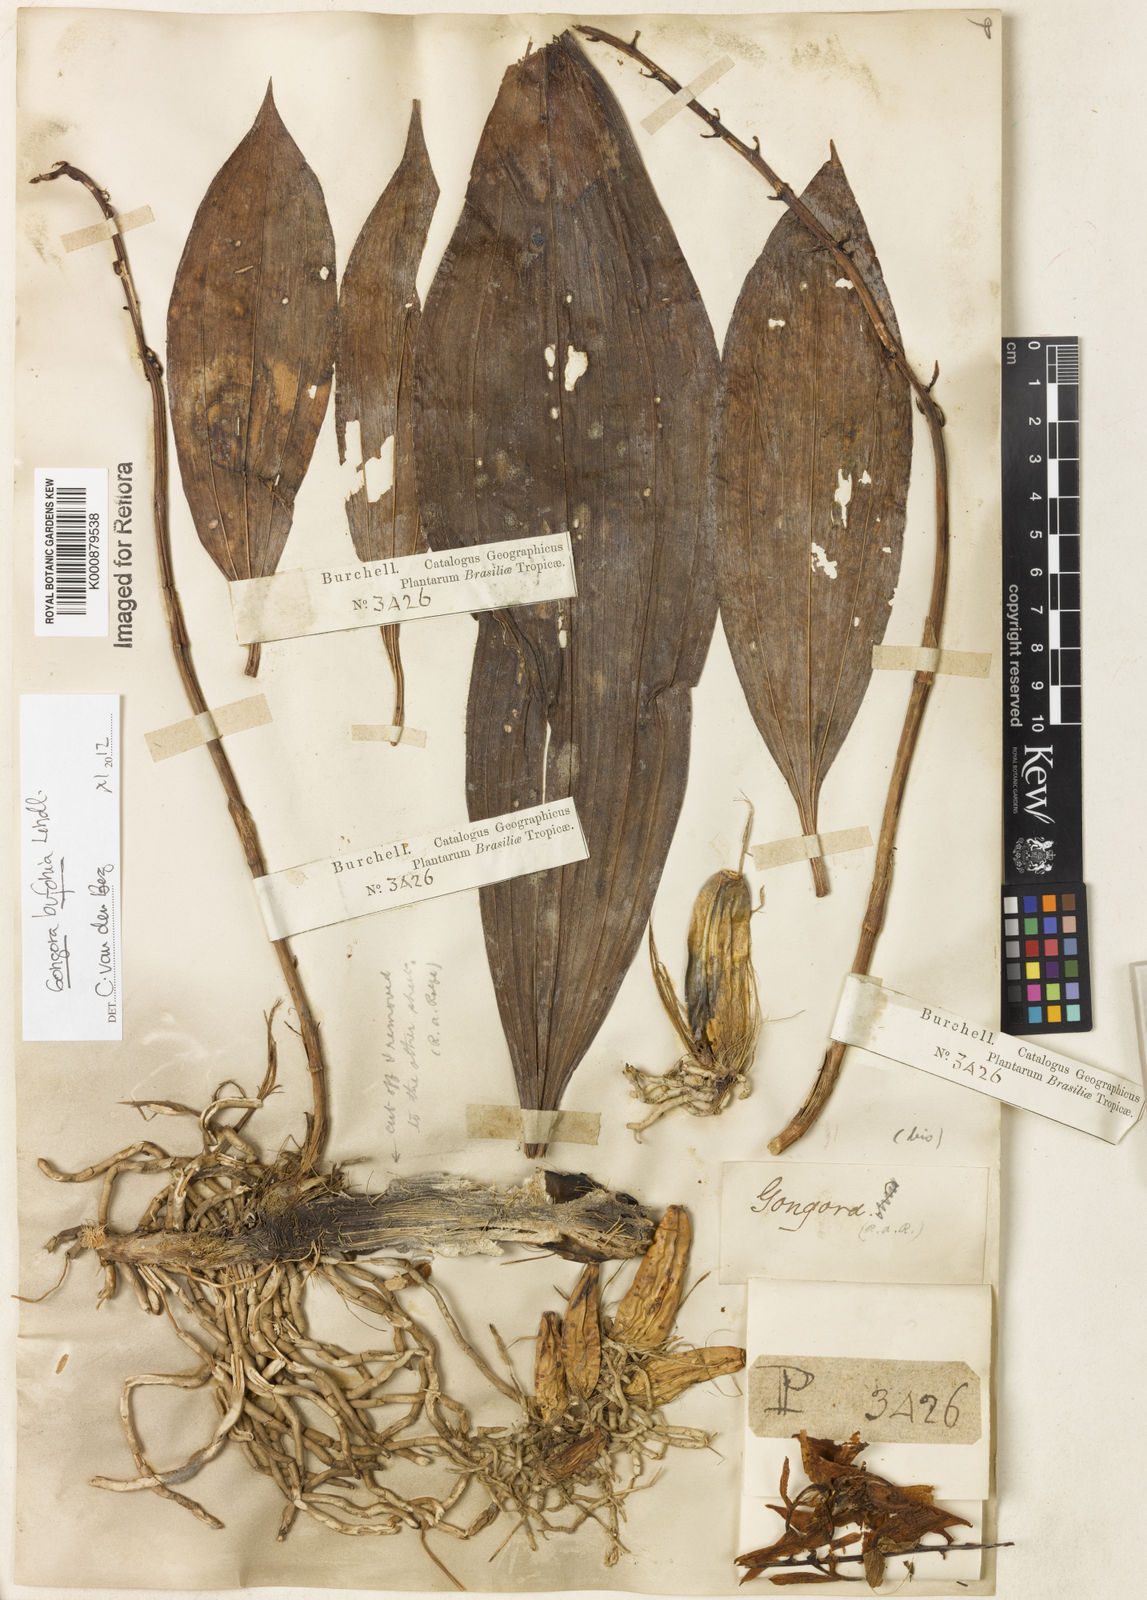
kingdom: Plantae
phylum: Tracheophyta
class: Liliopsida
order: Asparagales
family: Orchidaceae
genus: Gongora
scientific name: Gongora bufonia
